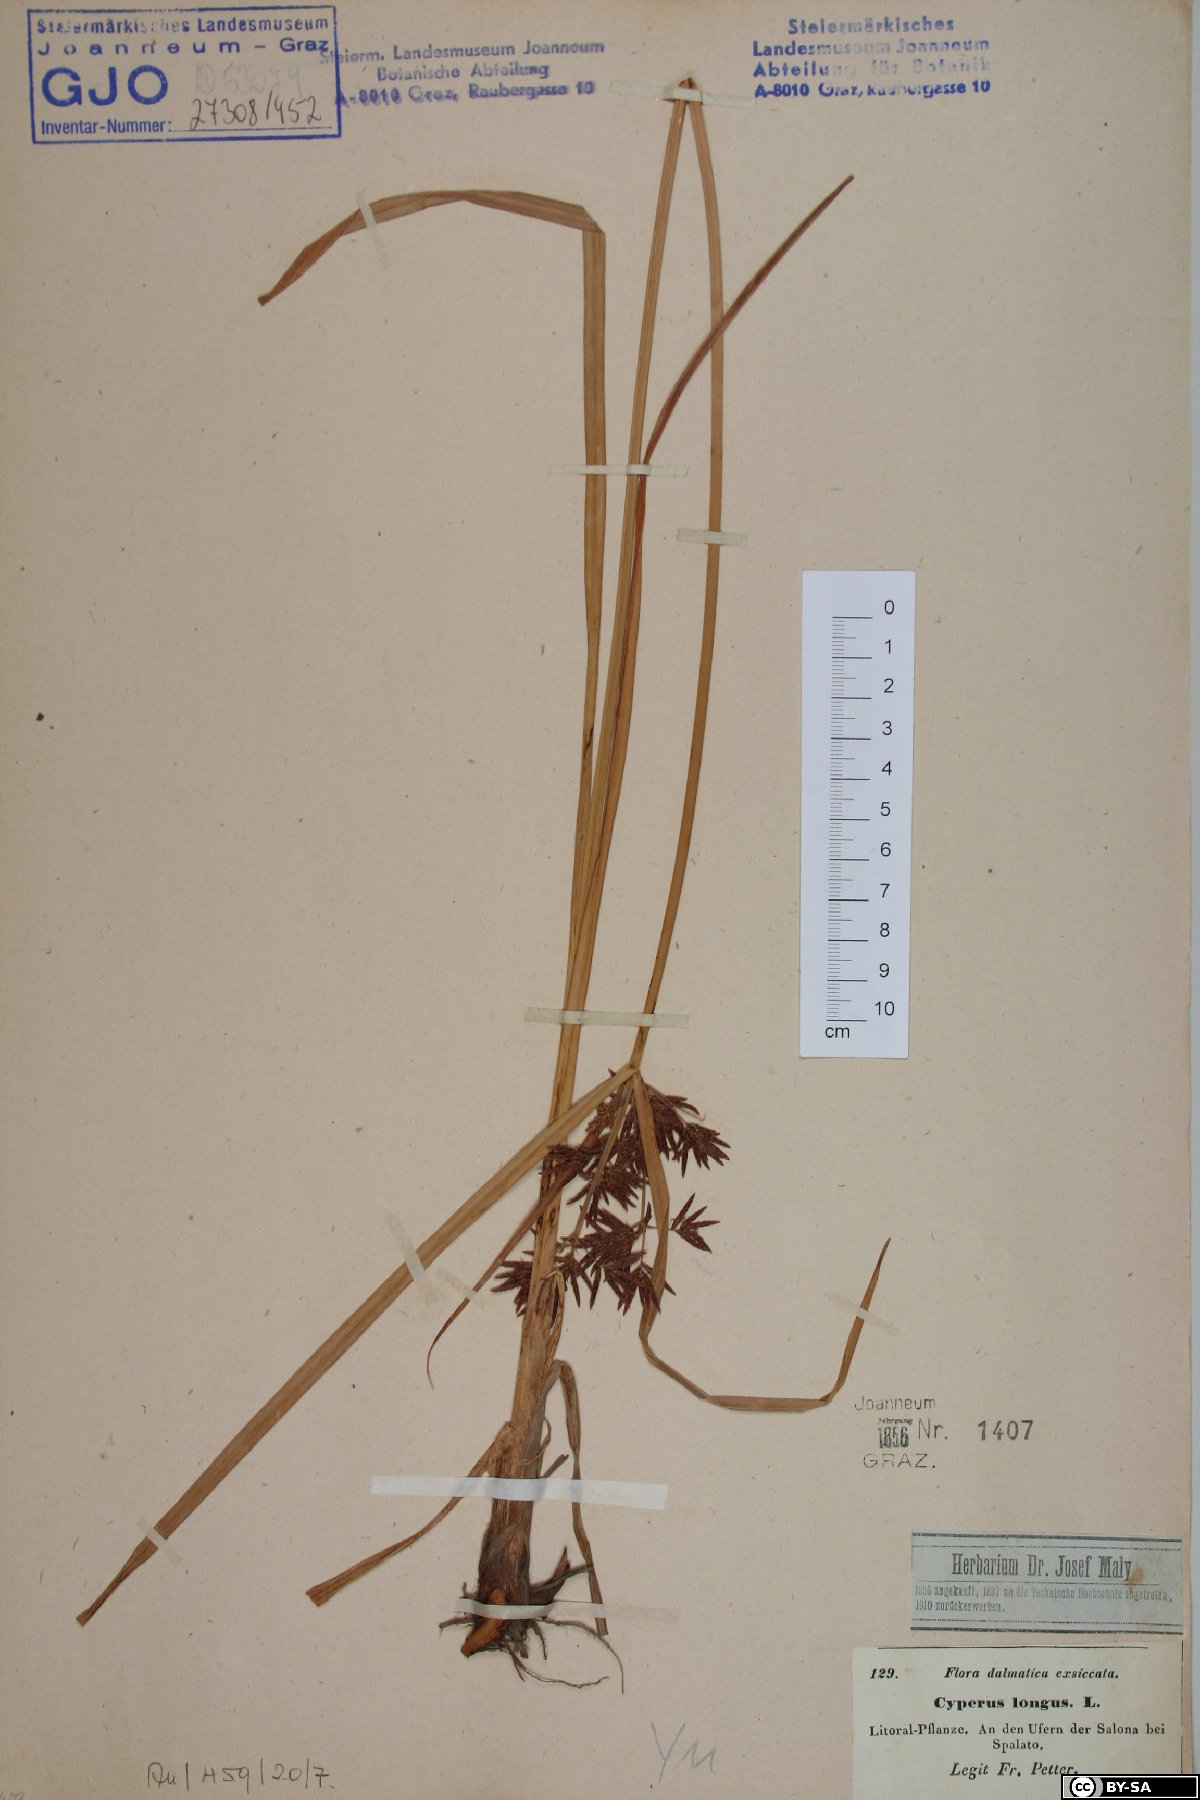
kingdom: Plantae
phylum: Tracheophyta
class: Liliopsida
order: Poales
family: Cyperaceae
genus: Cyperus
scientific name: Cyperus longus
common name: Galingale
